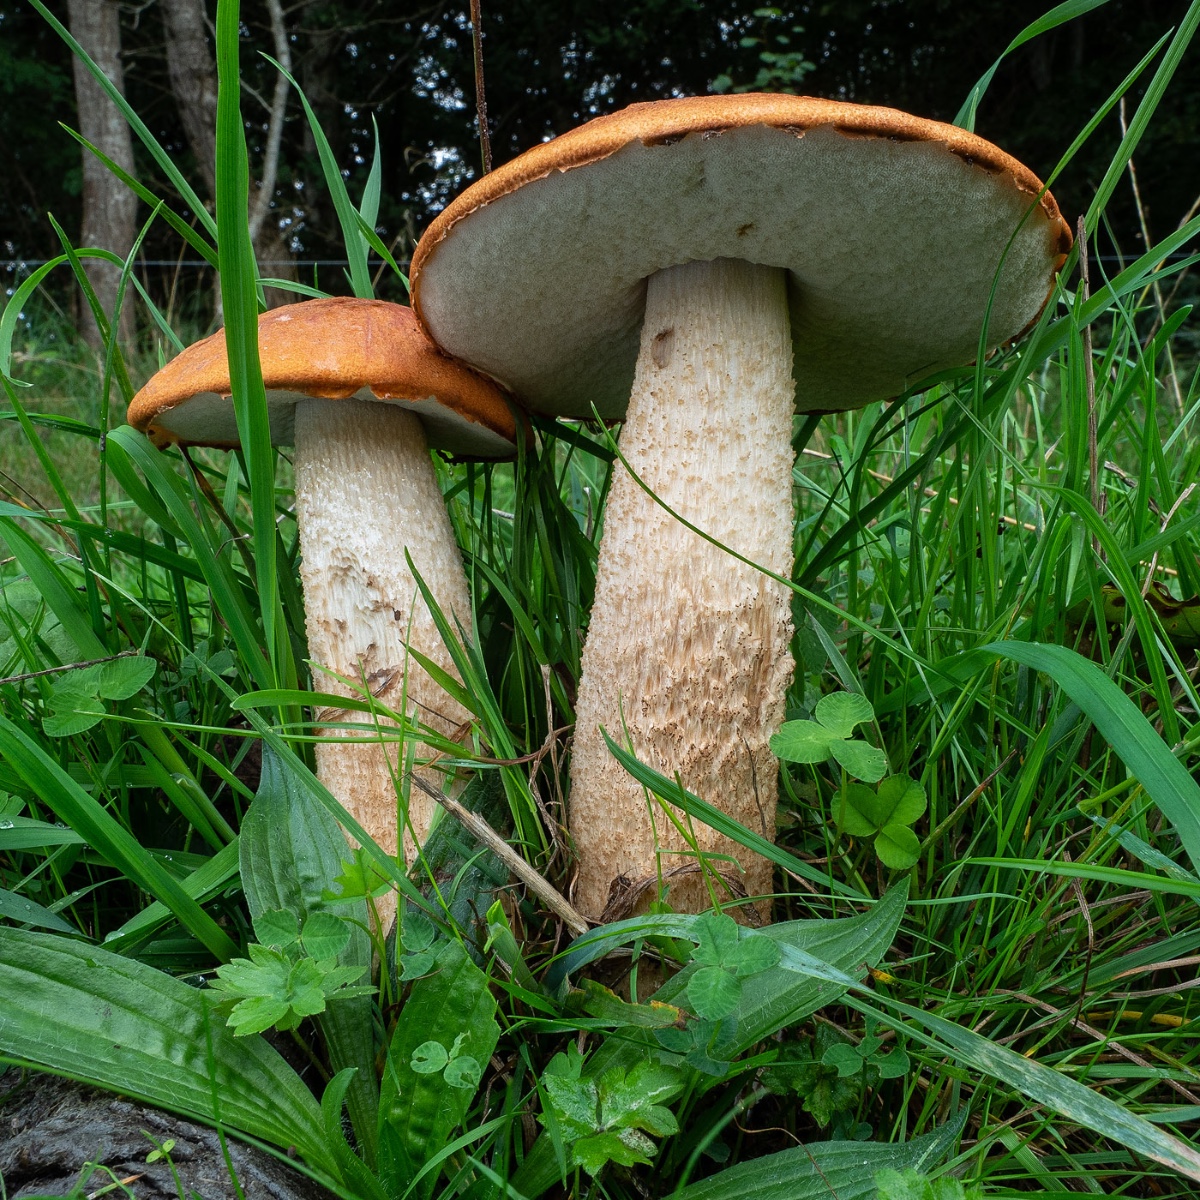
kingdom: Fungi
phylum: Basidiomycota
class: Agaricomycetes
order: Boletales
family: Boletaceae
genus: Leccinum
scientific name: Leccinum aurantiacum
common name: rustrød skælrørhat
